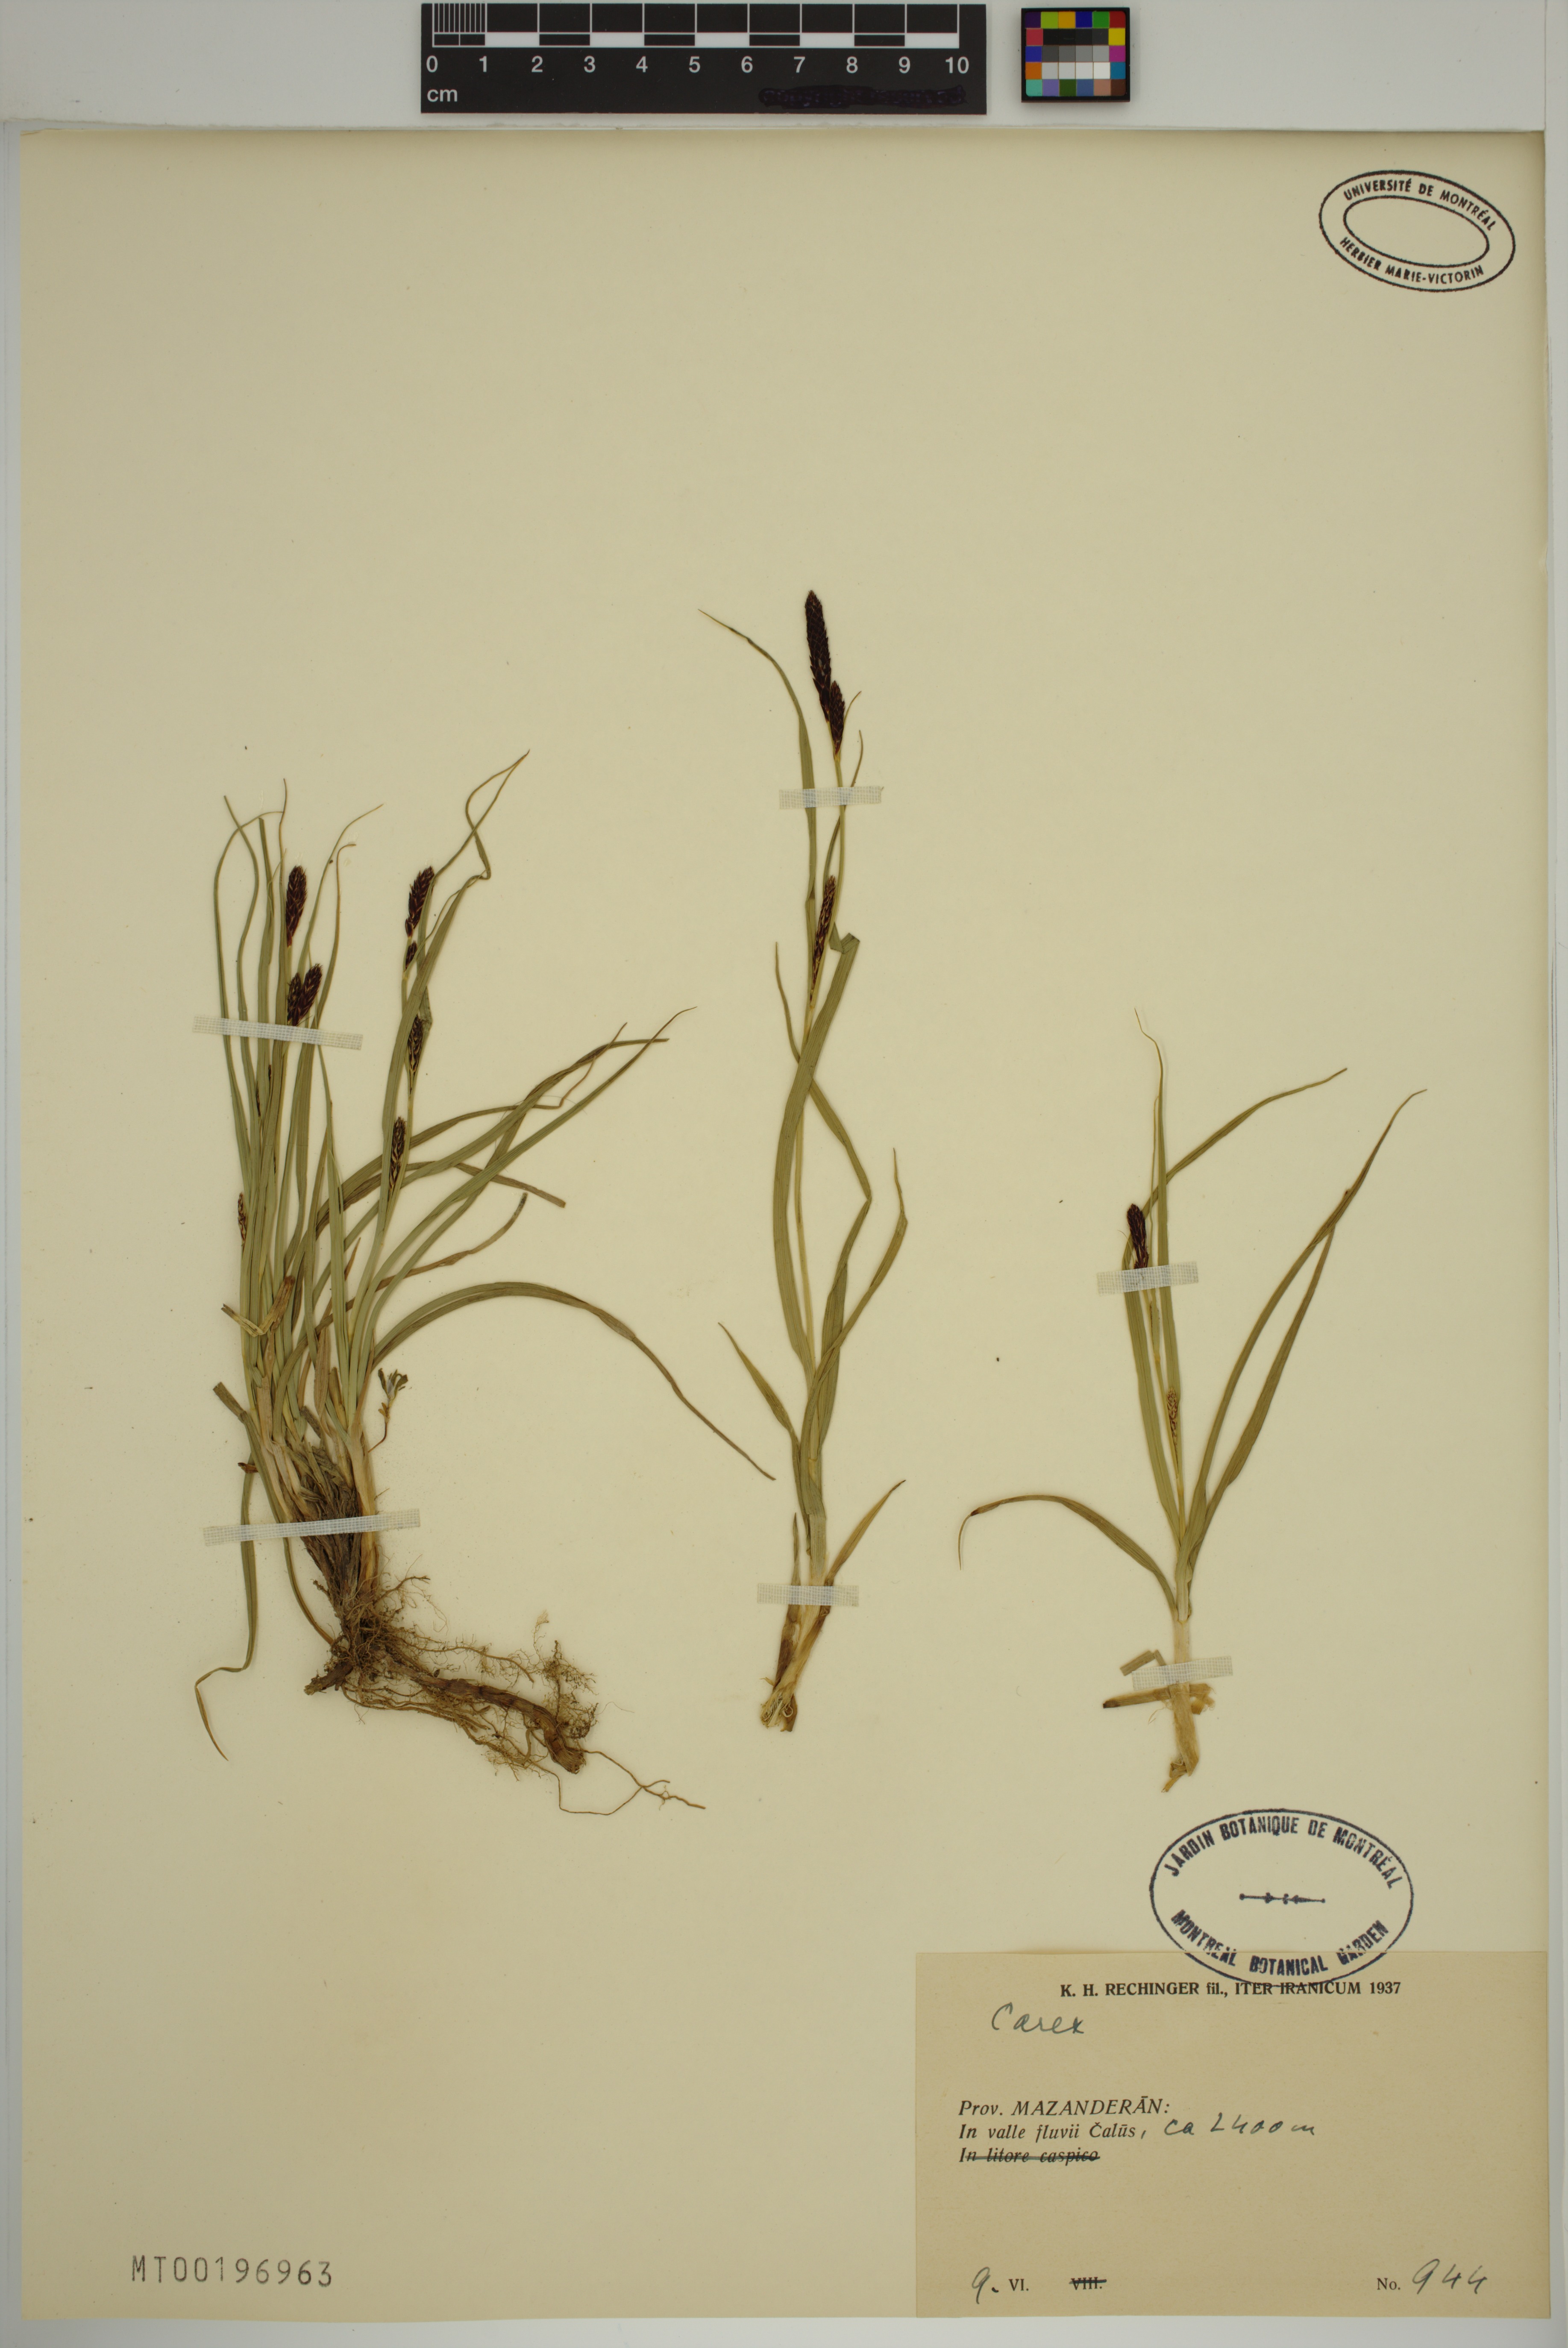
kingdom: Plantae
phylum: Tracheophyta
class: Liliopsida
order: Poales
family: Cyperaceae
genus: Carex
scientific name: Carex
